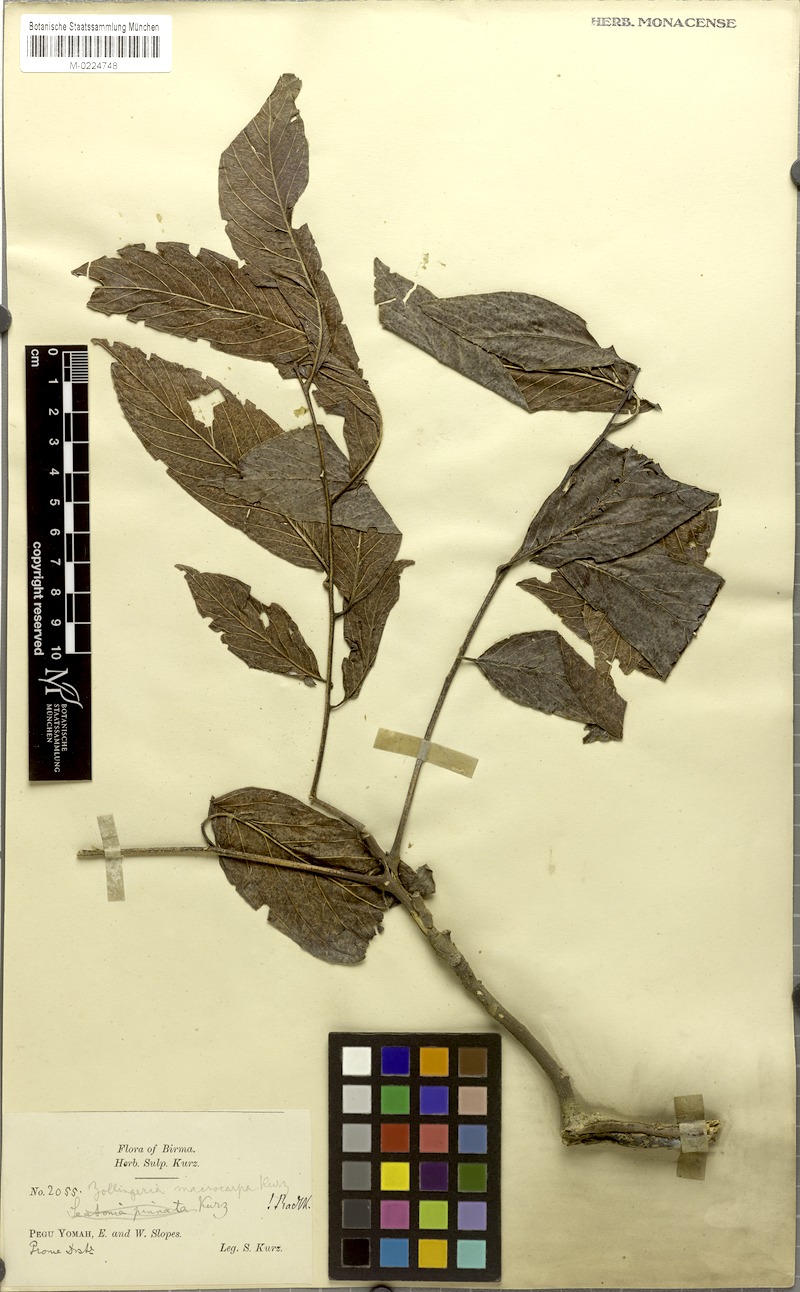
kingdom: Plantae
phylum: Tracheophyta
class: Magnoliopsida
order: Sapindales
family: Sapindaceae
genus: Zollingeria
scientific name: Zollingeria macrocarpa
